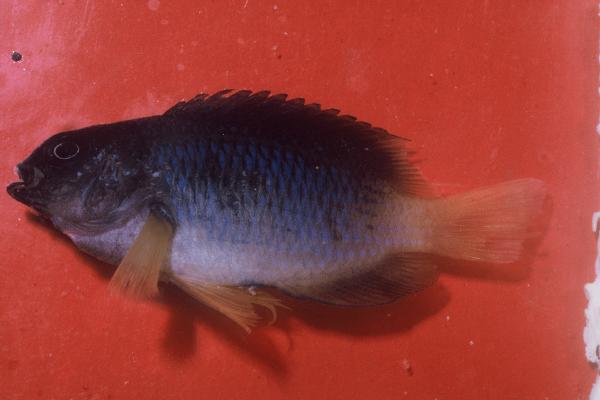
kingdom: Animalia
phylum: Chordata
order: Perciformes
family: Pomacentridae
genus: Pomacentrus
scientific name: Pomacentrus caeruleus
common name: Caerulean damsel
